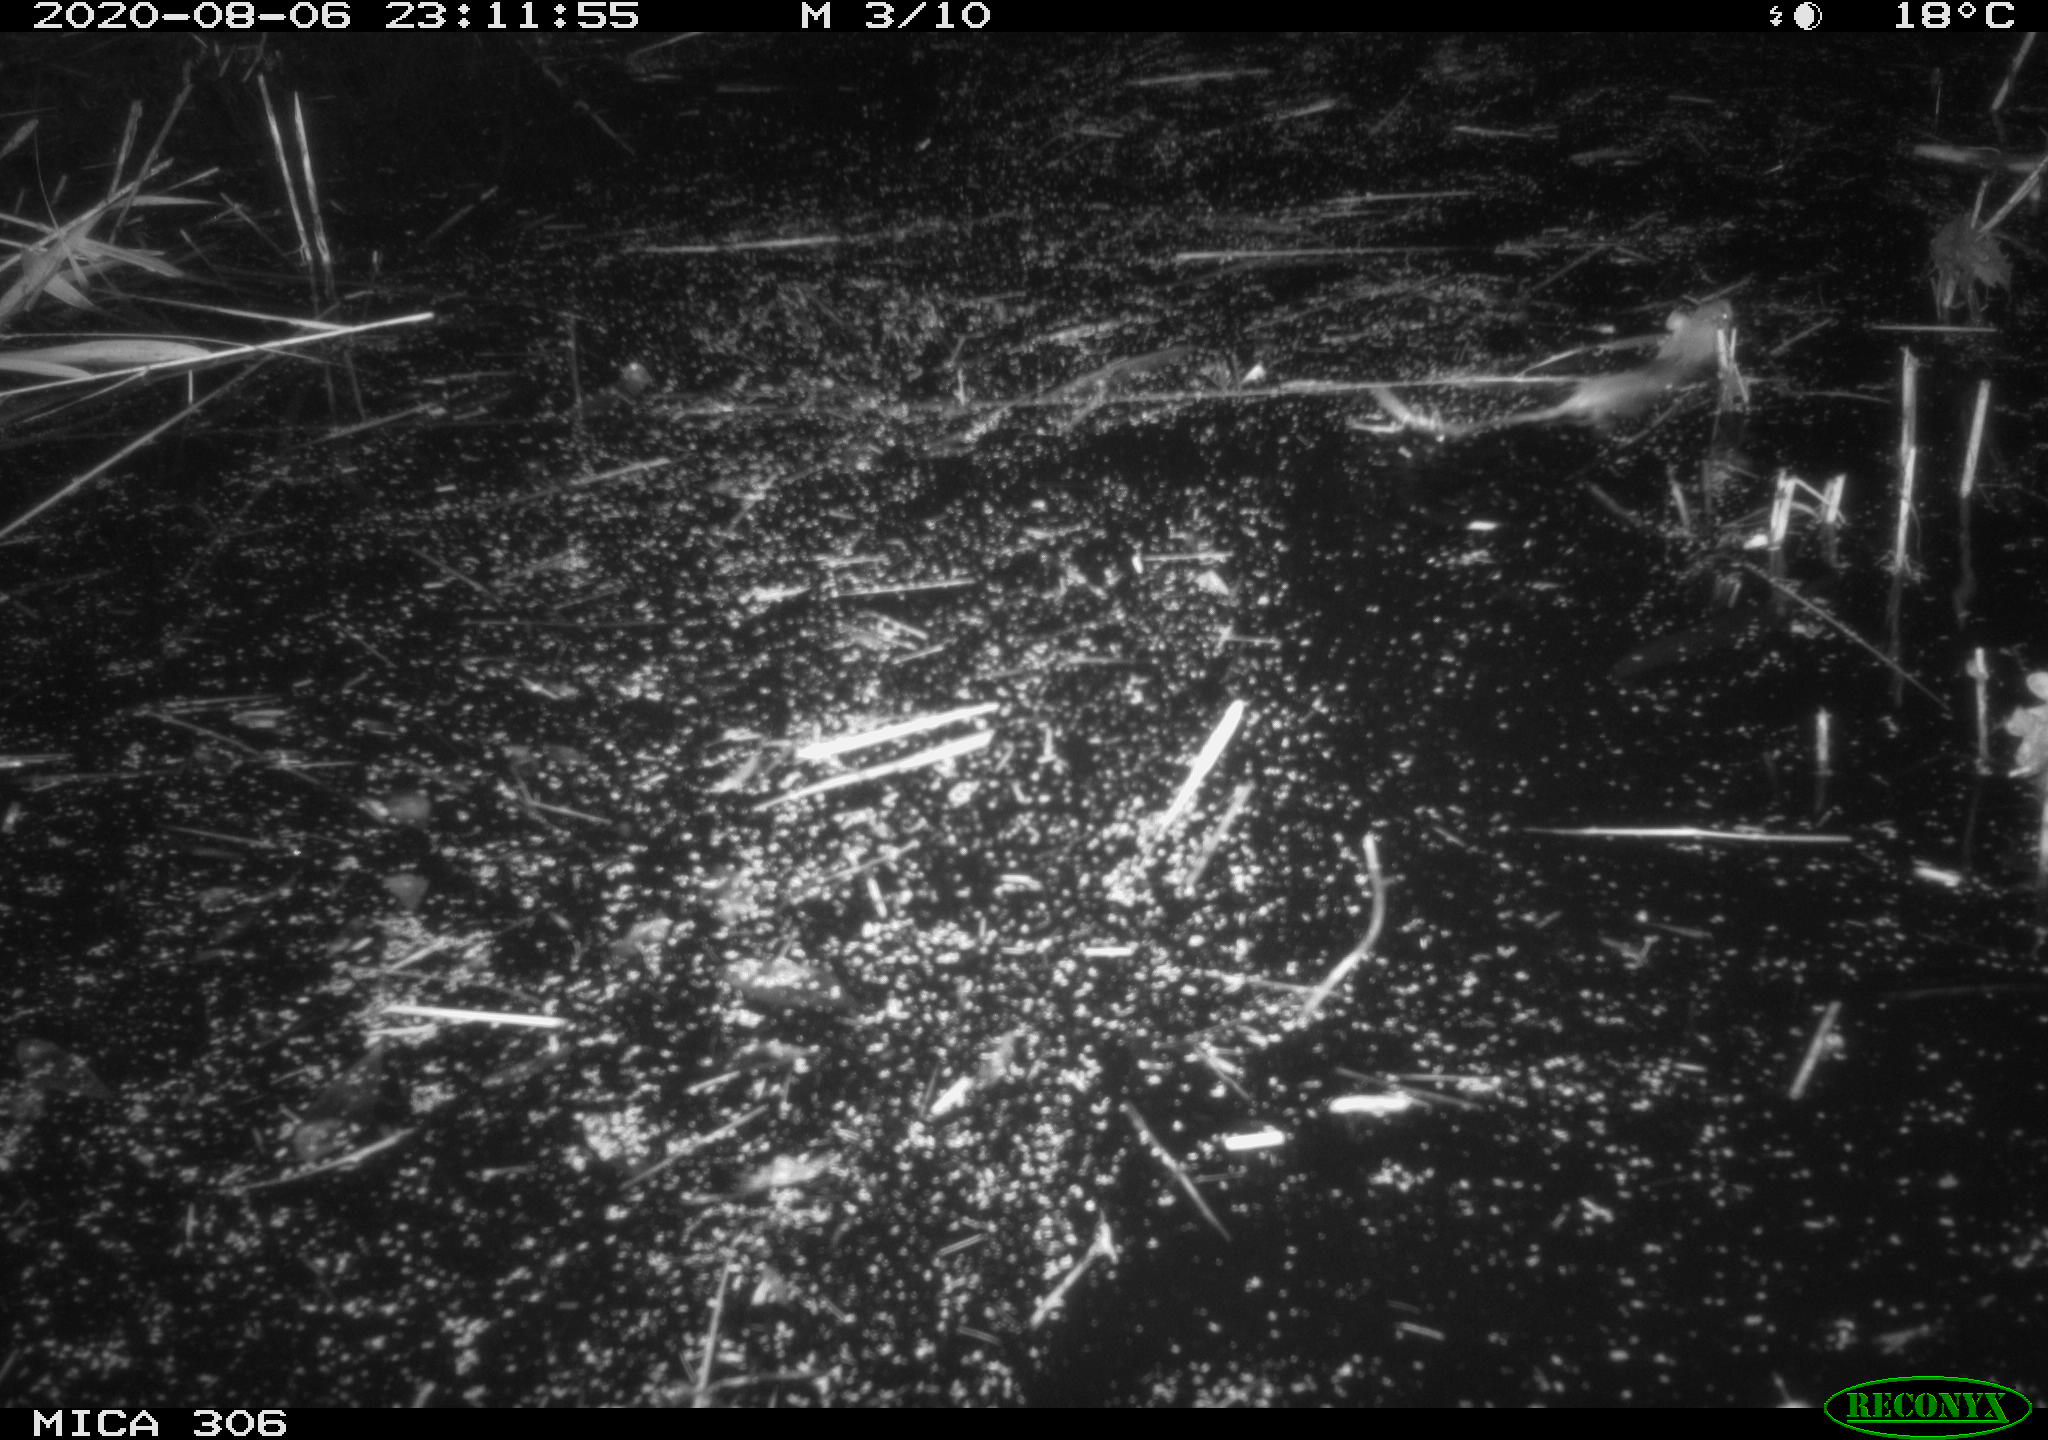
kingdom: Animalia
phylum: Chordata
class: Mammalia
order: Rodentia
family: Muridae
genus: Rattus
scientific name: Rattus norvegicus
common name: Brown rat
